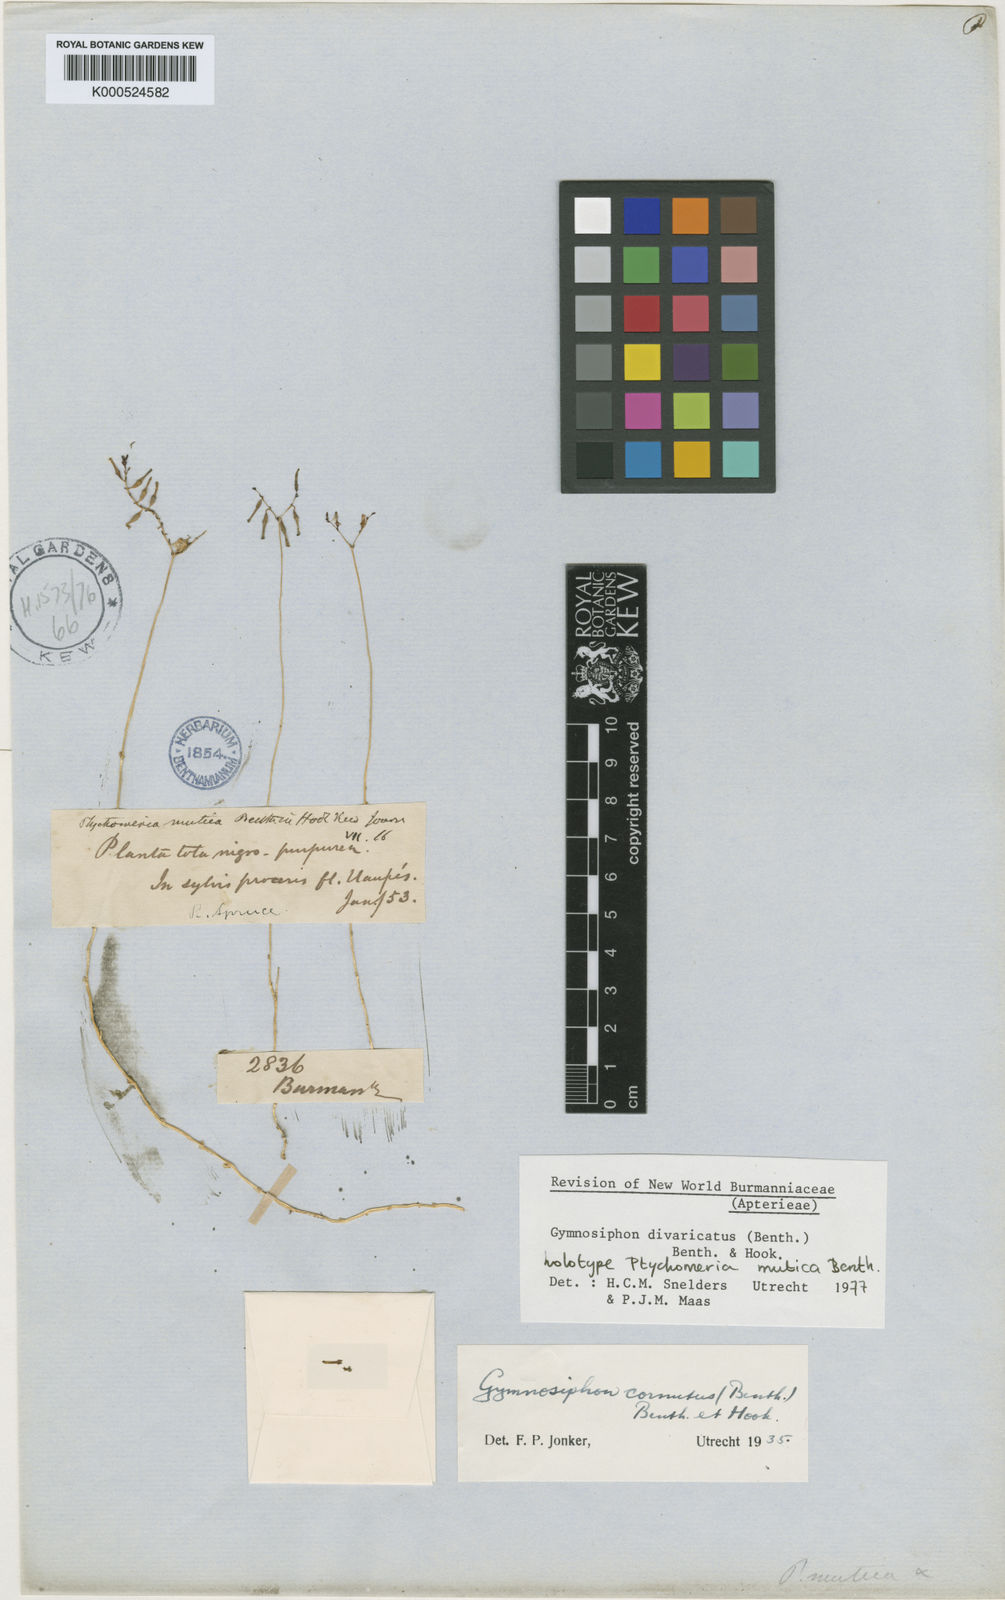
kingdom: Plantae
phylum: Tracheophyta
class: Liliopsida
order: Dioscoreales
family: Burmanniaceae
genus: Gymnosiphon
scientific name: Gymnosiphon divaricatus
